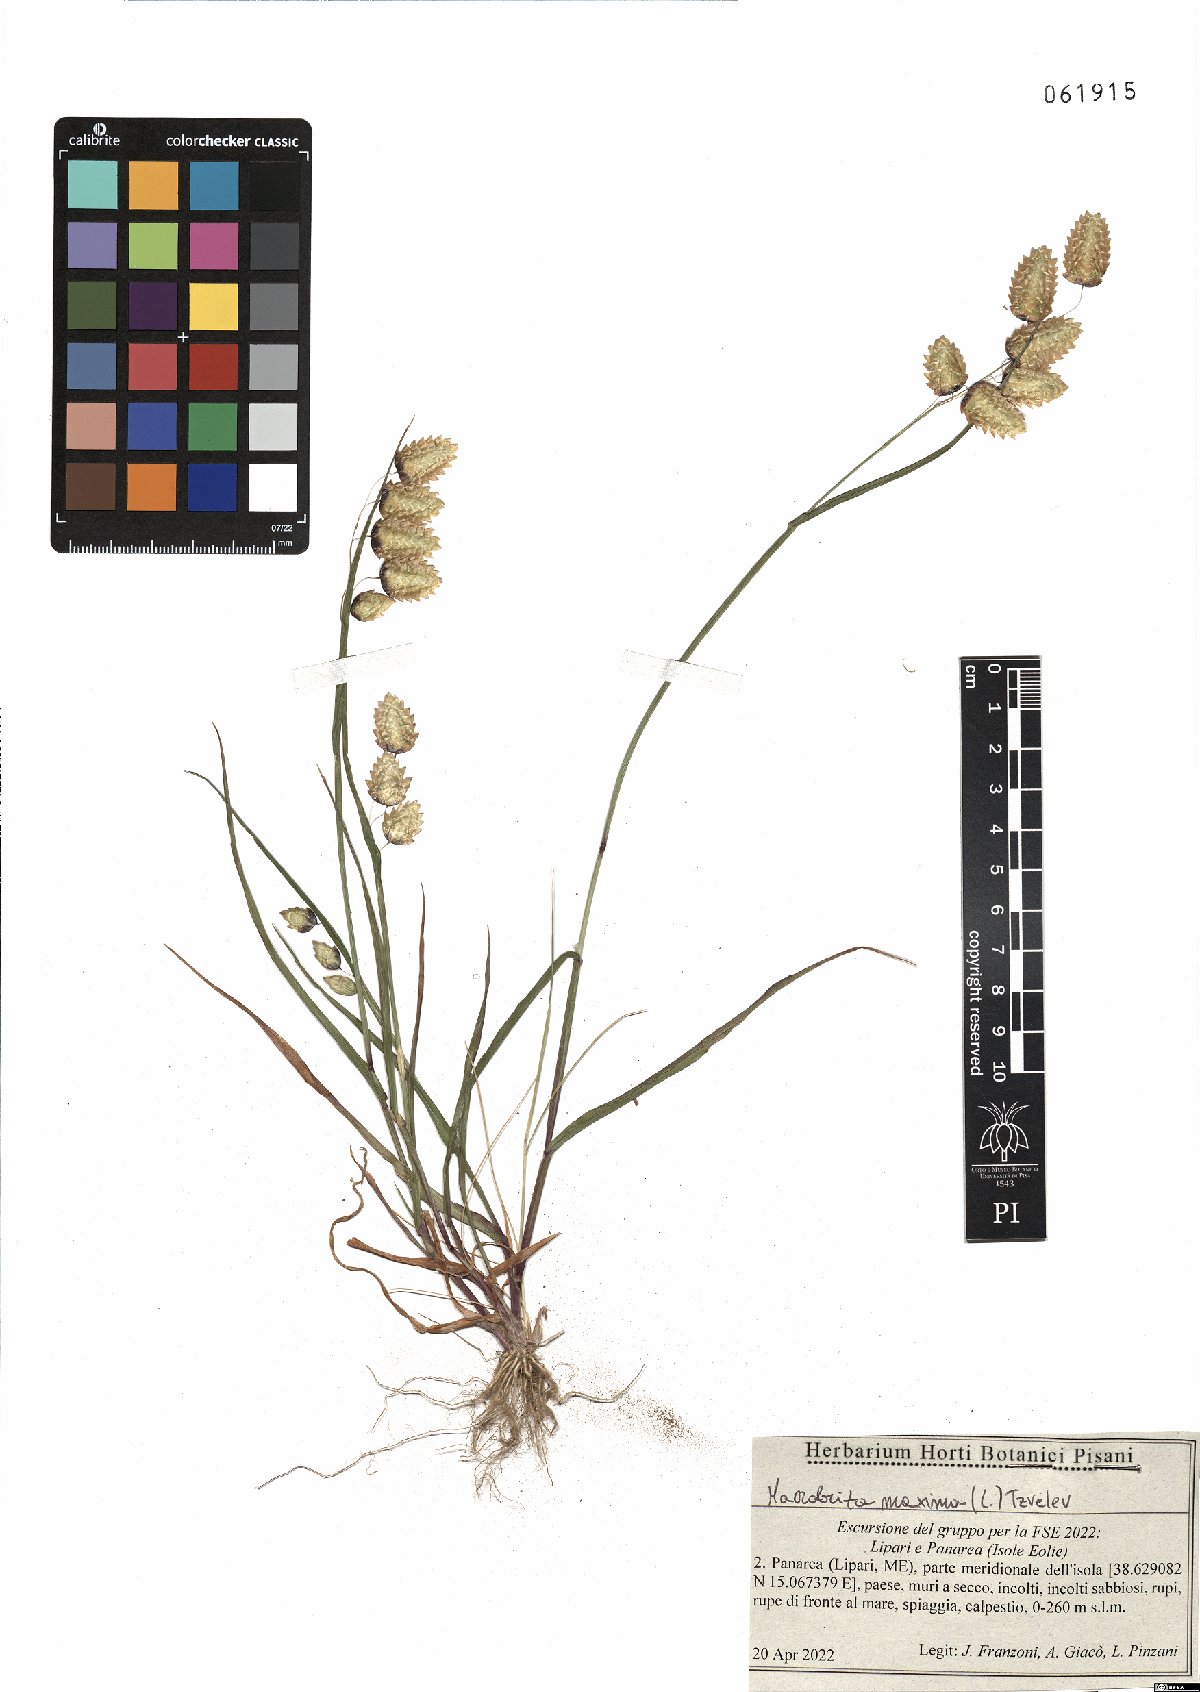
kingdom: Plantae
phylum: Tracheophyta
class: Liliopsida
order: Poales
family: Poaceae
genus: Briza
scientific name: Briza maxima
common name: Big quakinggrass
